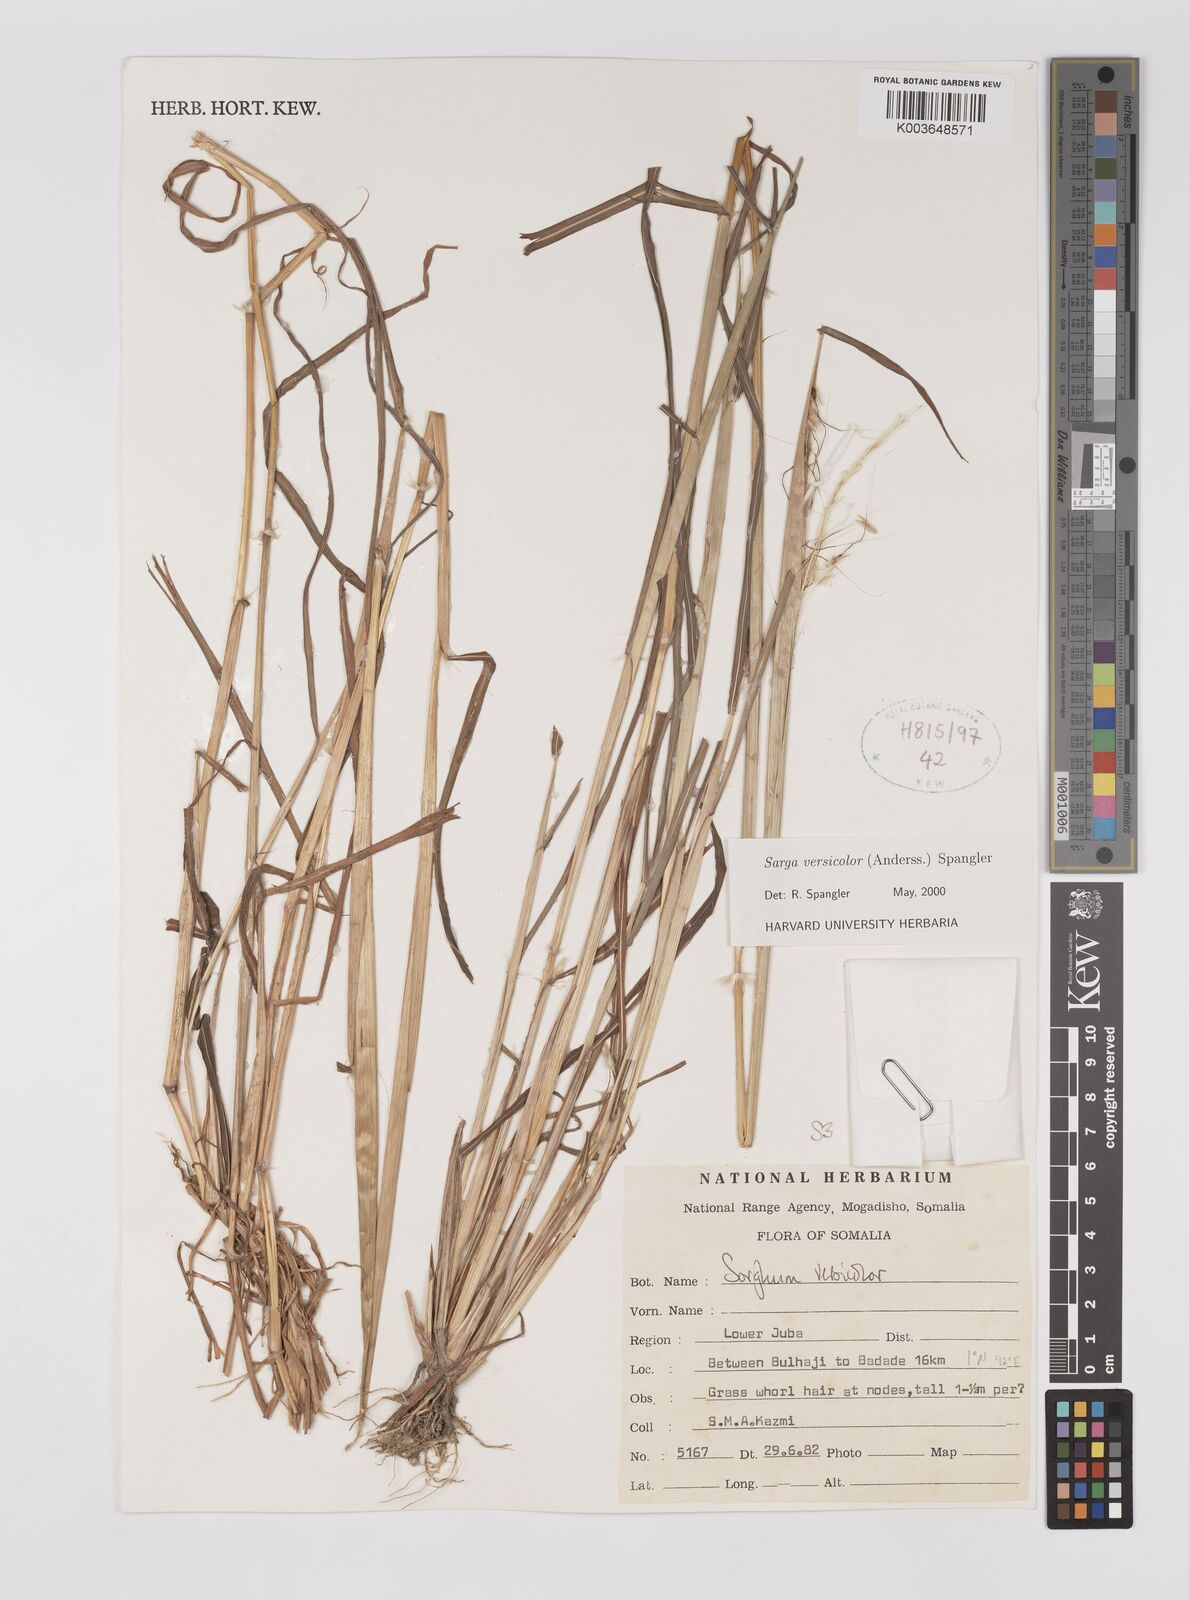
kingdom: Plantae
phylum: Tracheophyta
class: Liliopsida
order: Poales
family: Poaceae
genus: Sarga
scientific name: Sarga versicolor
